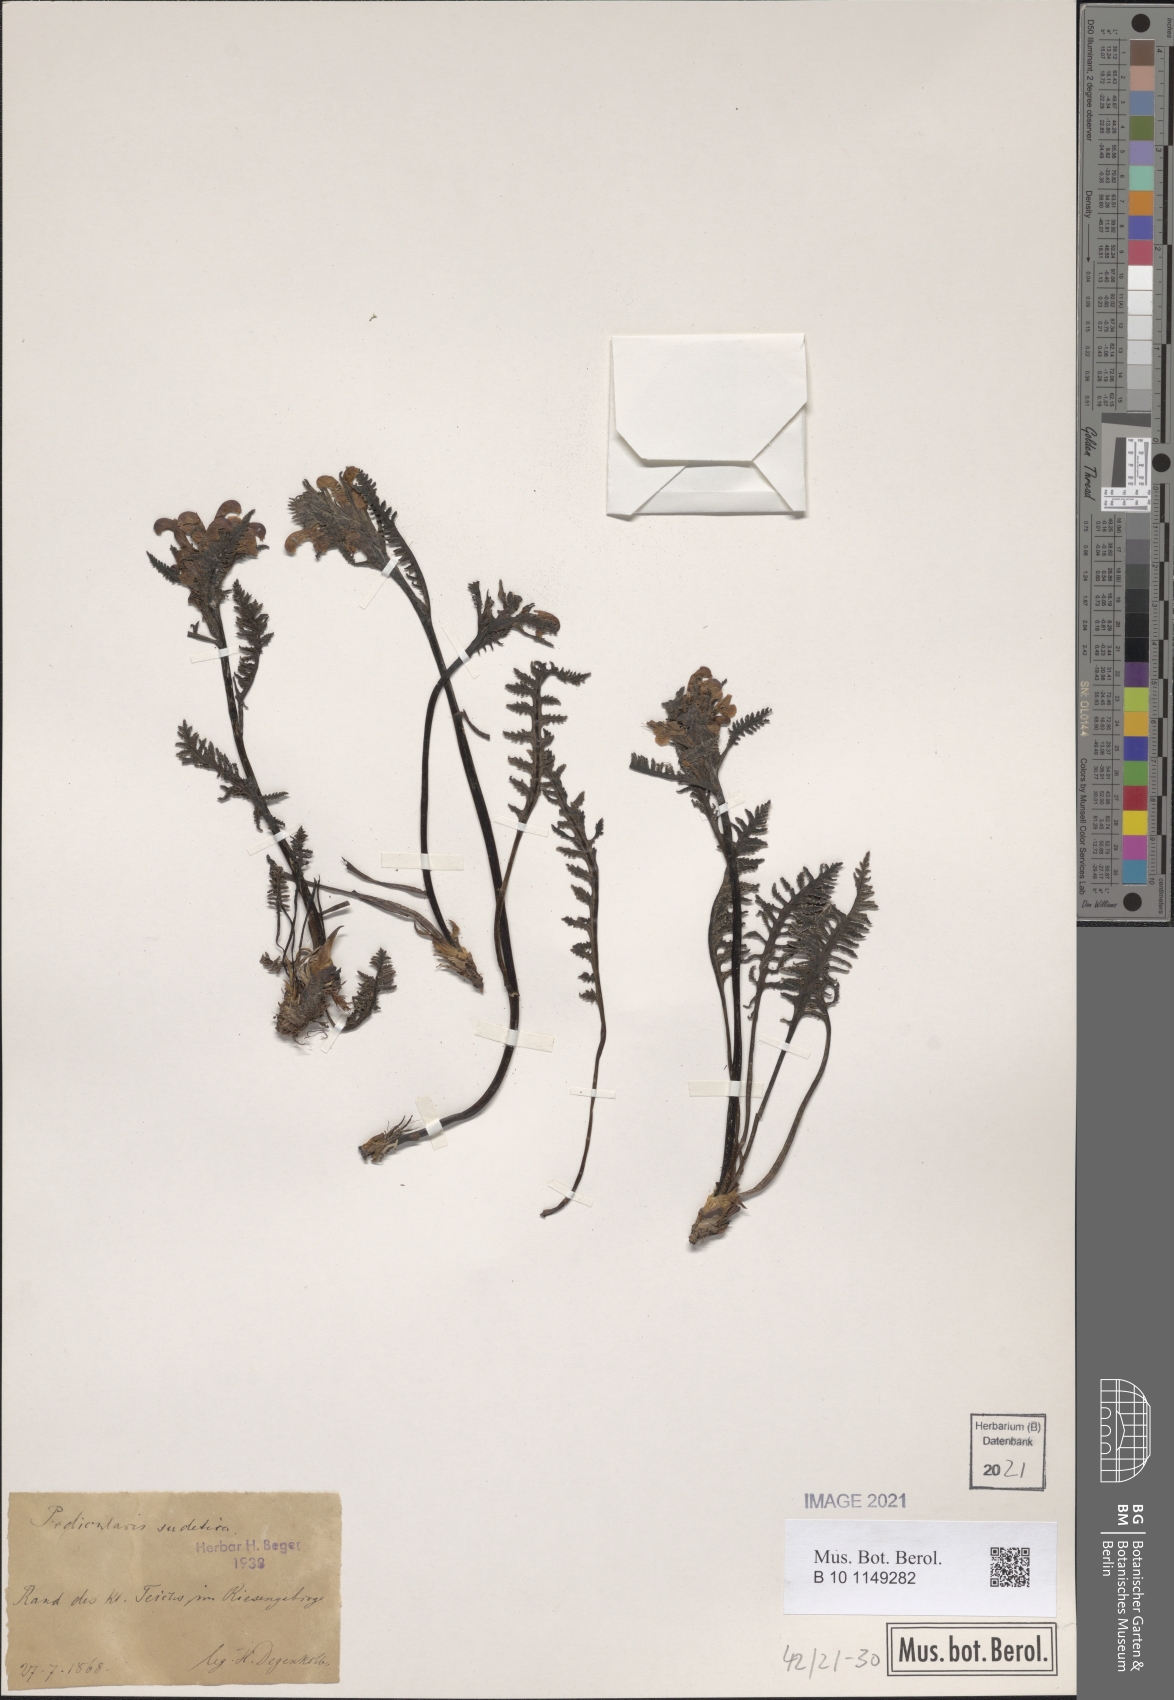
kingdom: Plantae
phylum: Tracheophyta
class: Magnoliopsida
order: Lamiales
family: Orobanchaceae
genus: Pedicularis
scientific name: Pedicularis sudetica
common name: Sudeten lousewort
